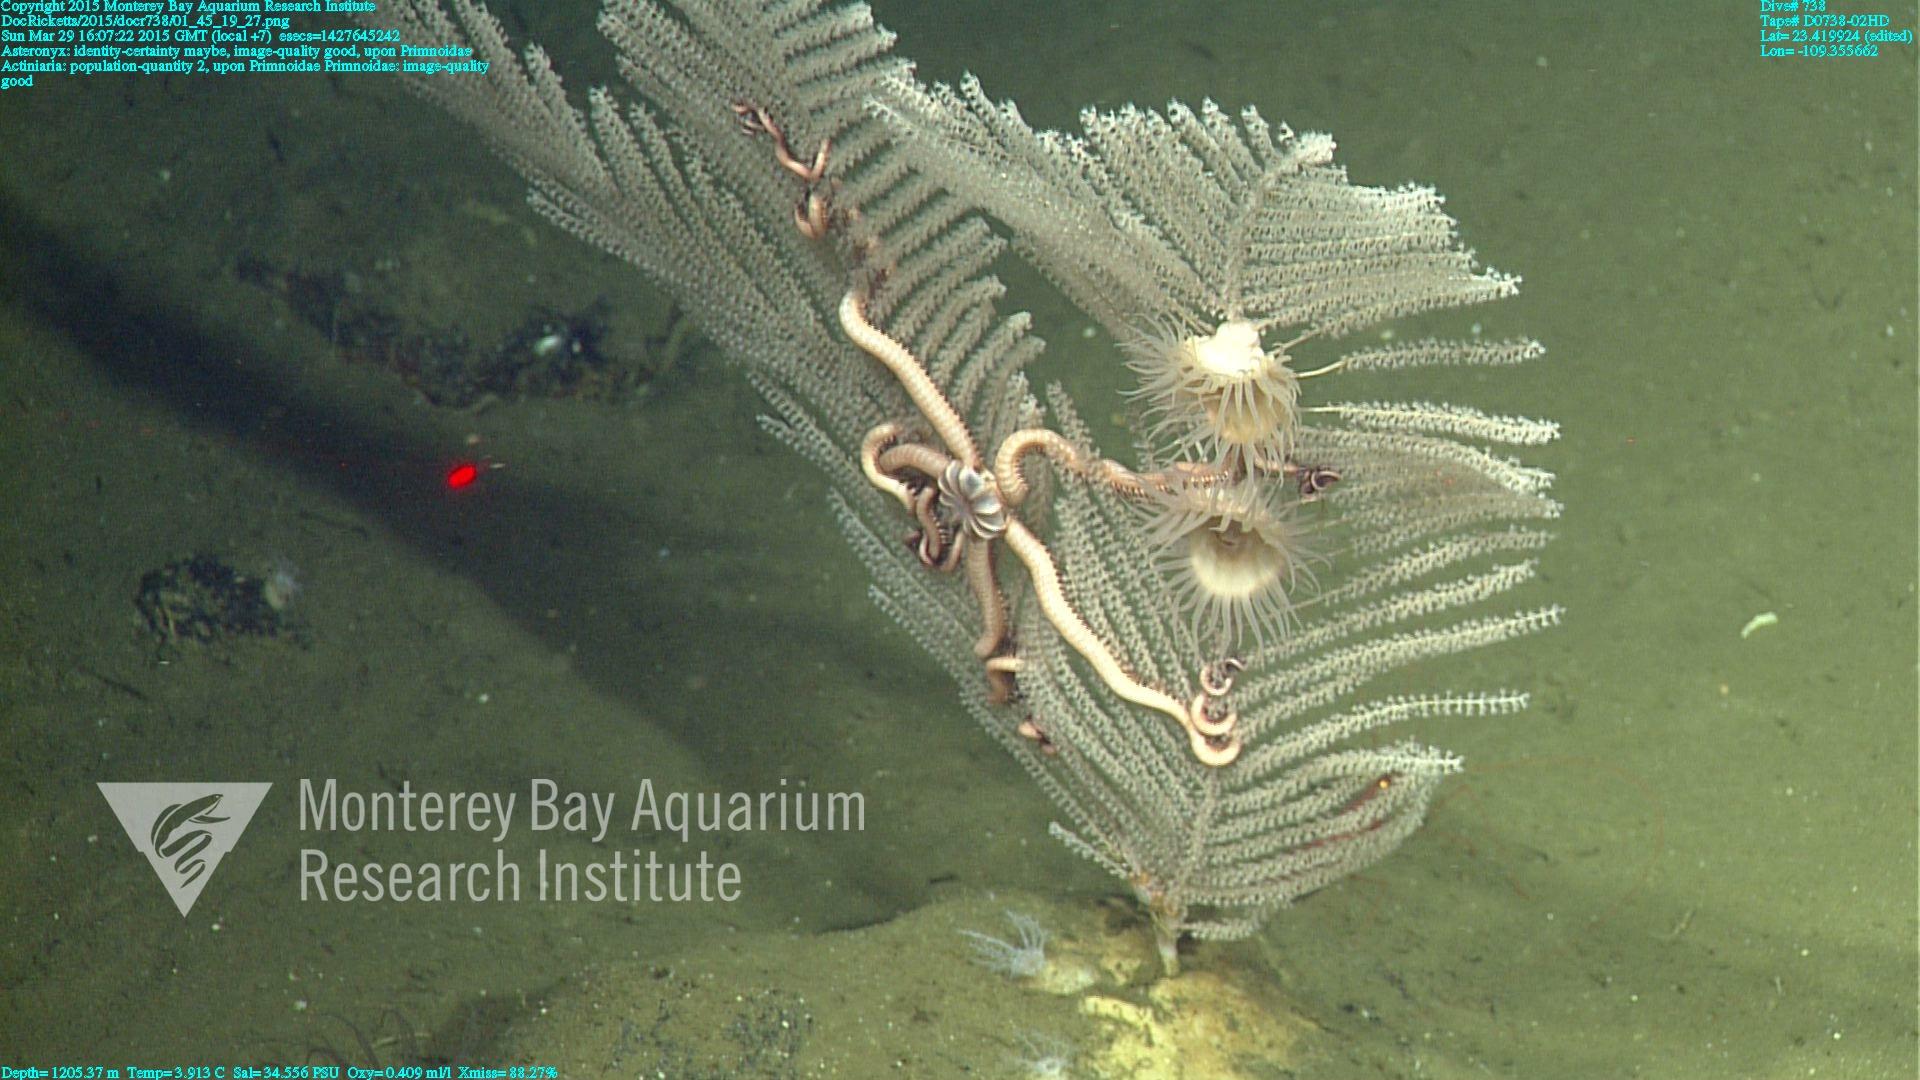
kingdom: Animalia
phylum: Cnidaria
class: Anthozoa
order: Scleralcyonacea
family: Primnoidae
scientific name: Primnoidae
